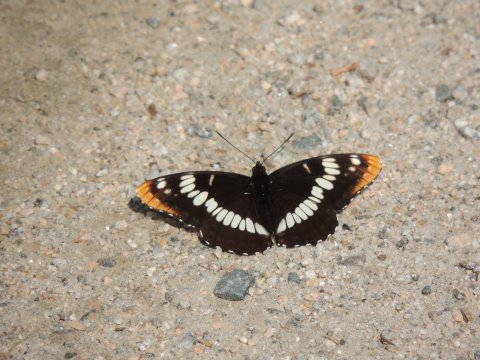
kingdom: Animalia
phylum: Arthropoda
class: Insecta
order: Lepidoptera
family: Nymphalidae
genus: Limenitis
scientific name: Limenitis lorquini
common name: Lorquin's Admiral
